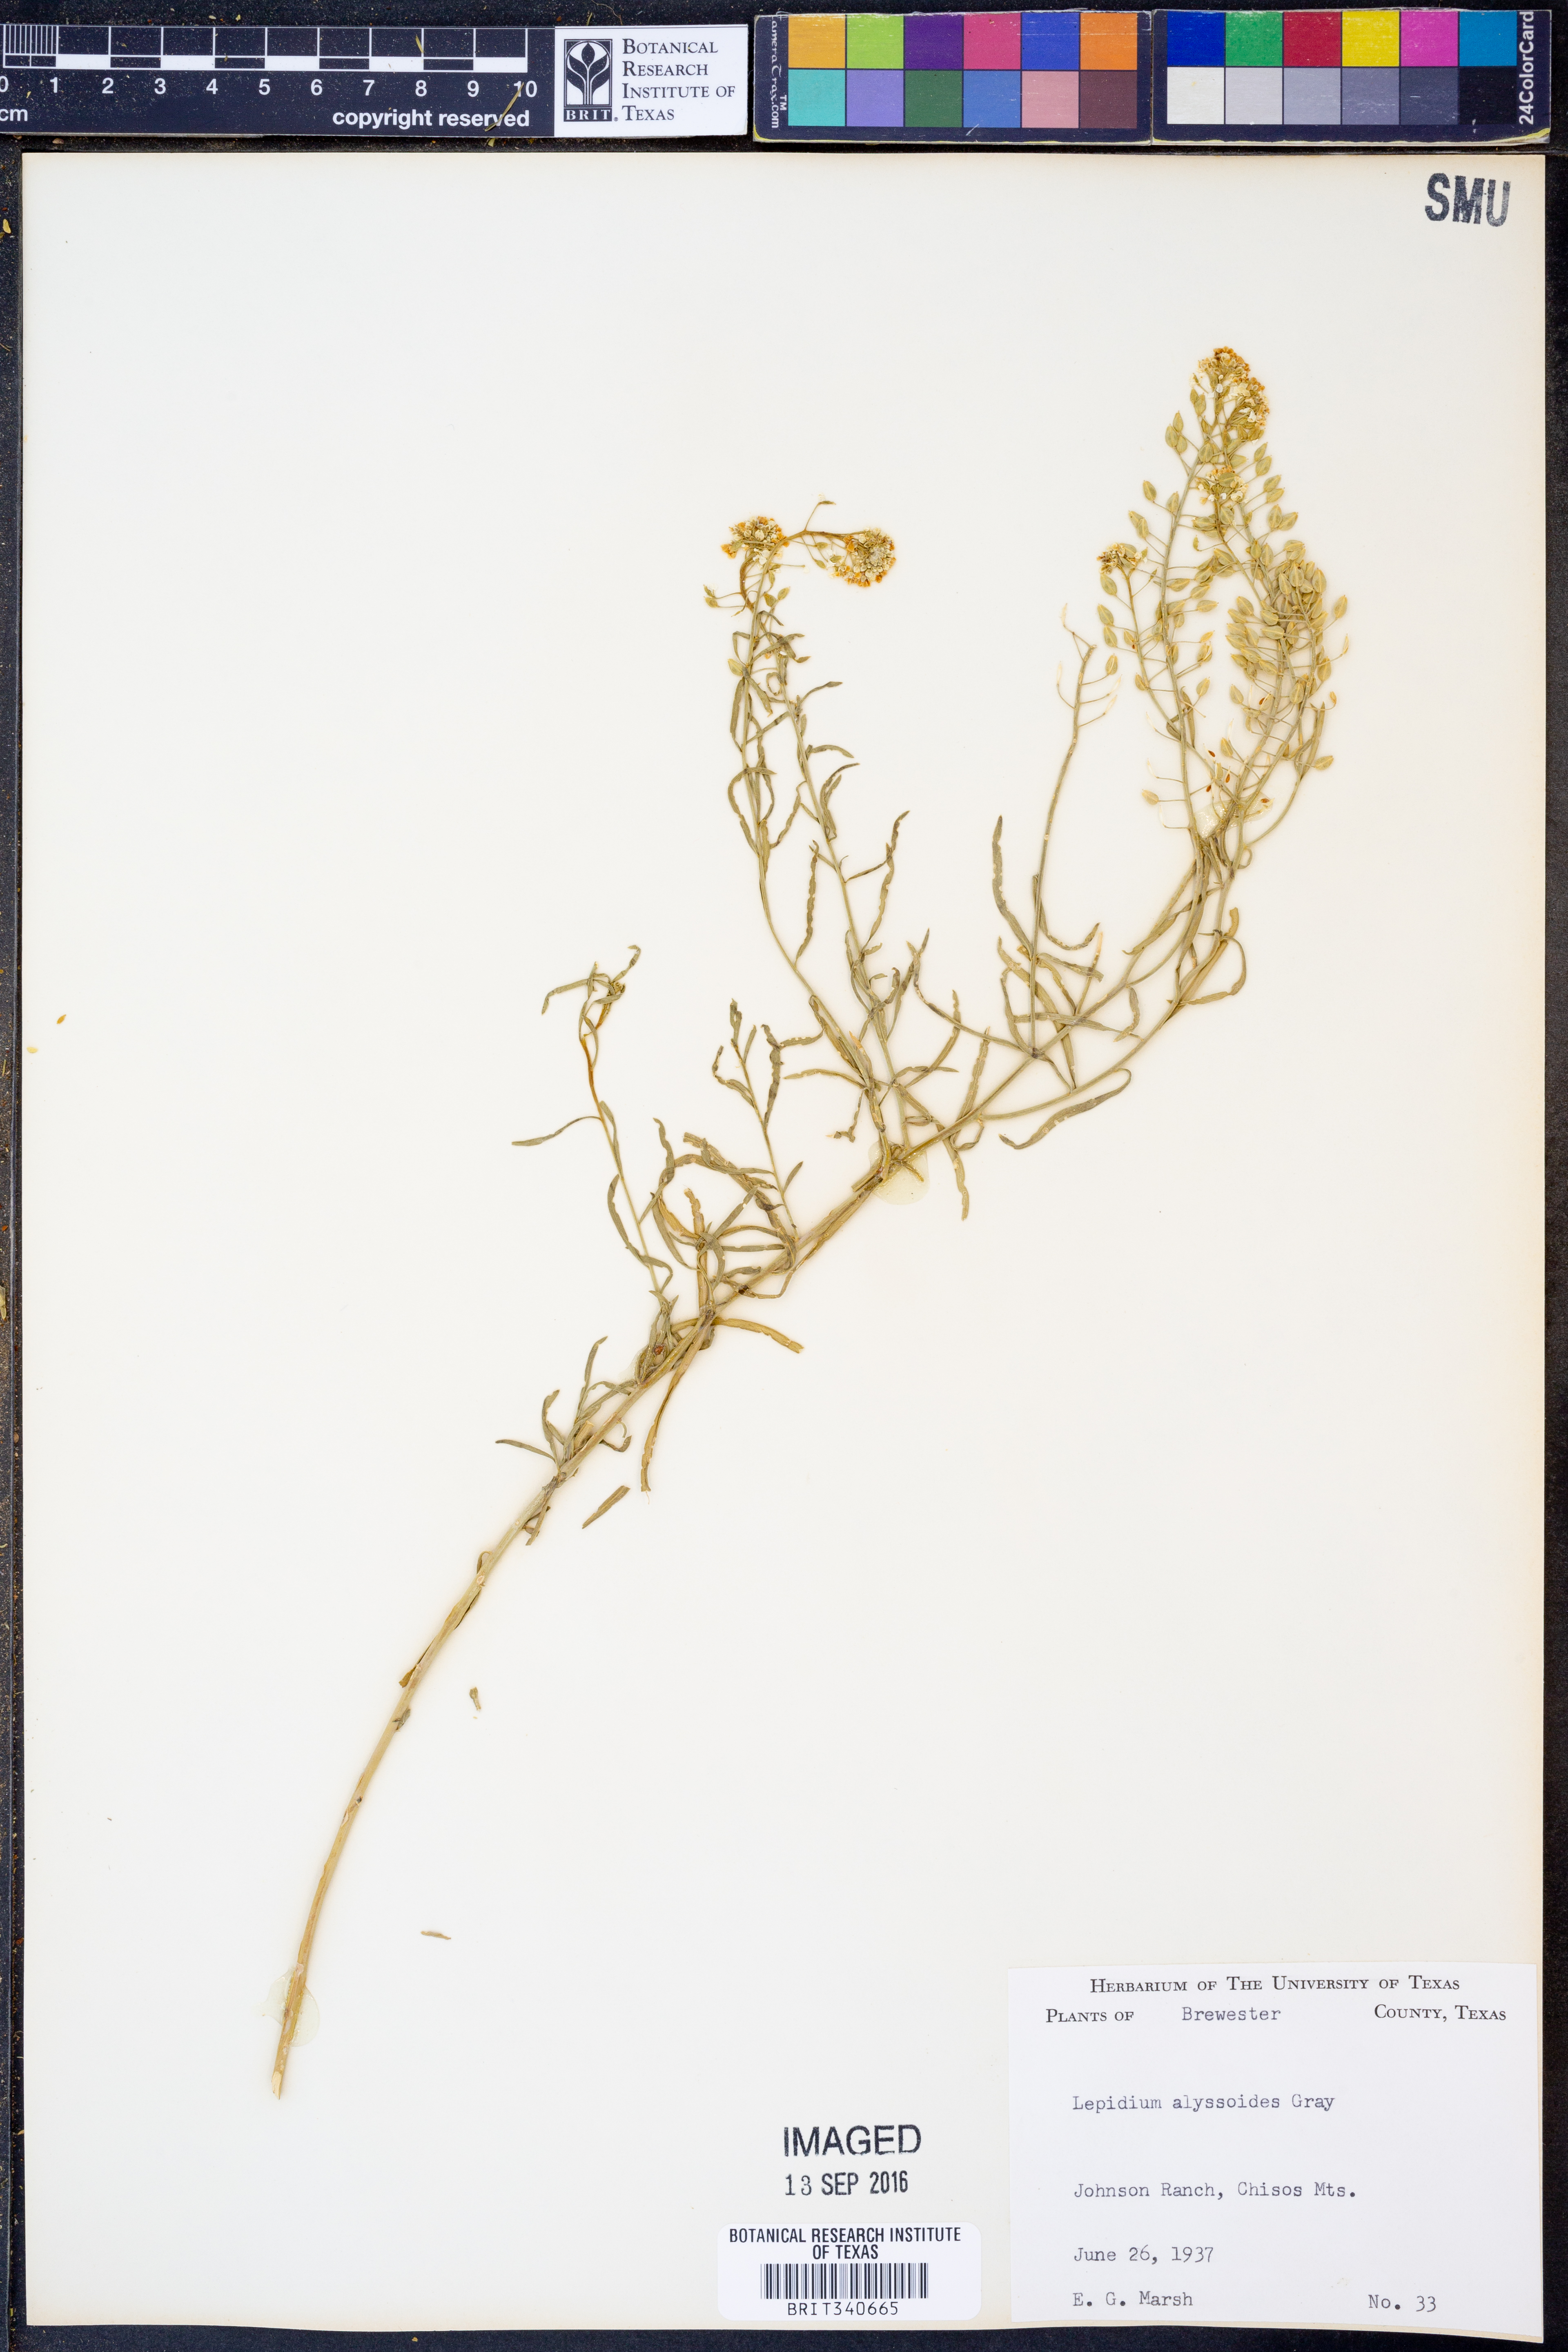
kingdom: Plantae
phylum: Tracheophyta
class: Magnoliopsida
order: Brassicales
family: Brassicaceae
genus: Lepidium
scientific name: Lepidium alyssoides
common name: Mesa pepperweed
